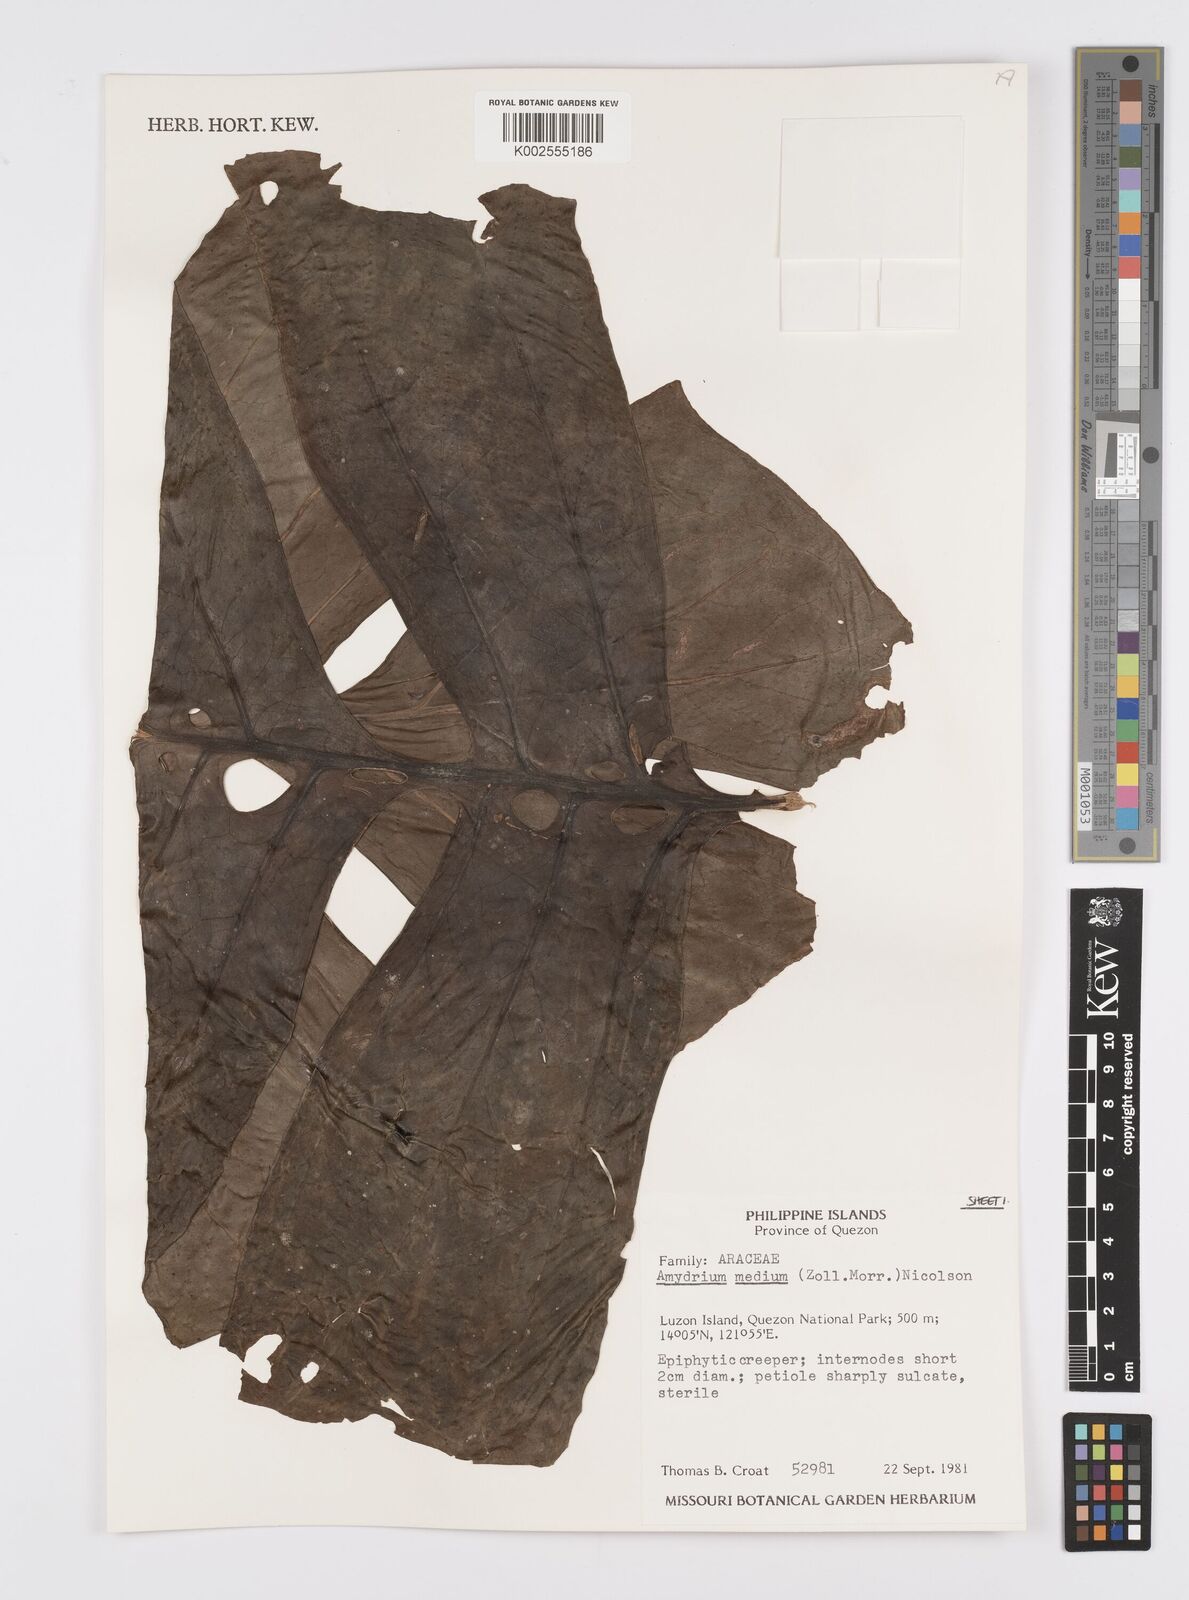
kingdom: Plantae
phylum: Tracheophyta
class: Liliopsida
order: Alismatales
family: Araceae
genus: Amydrium
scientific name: Amydrium medium
